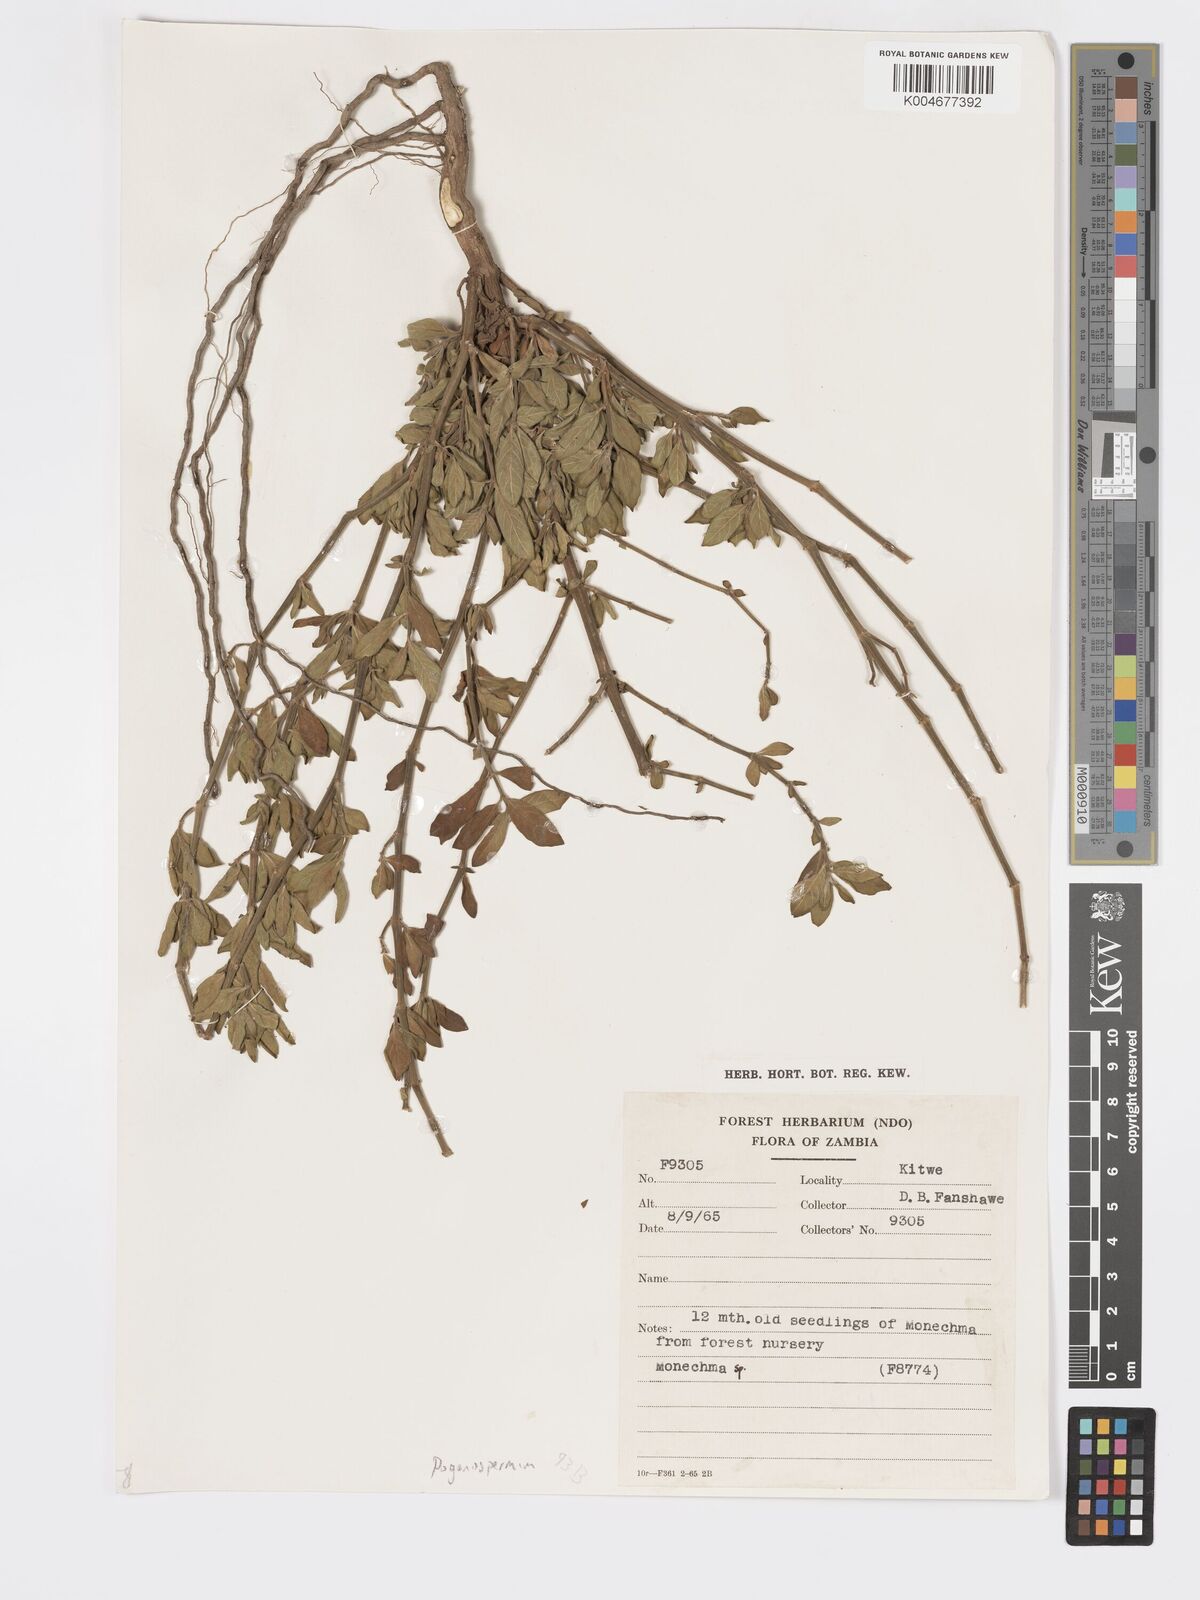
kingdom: Plantae
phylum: Tracheophyta
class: Magnoliopsida
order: Lamiales
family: Acanthaceae
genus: Pogonospermum
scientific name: Pogonospermum ciliare
